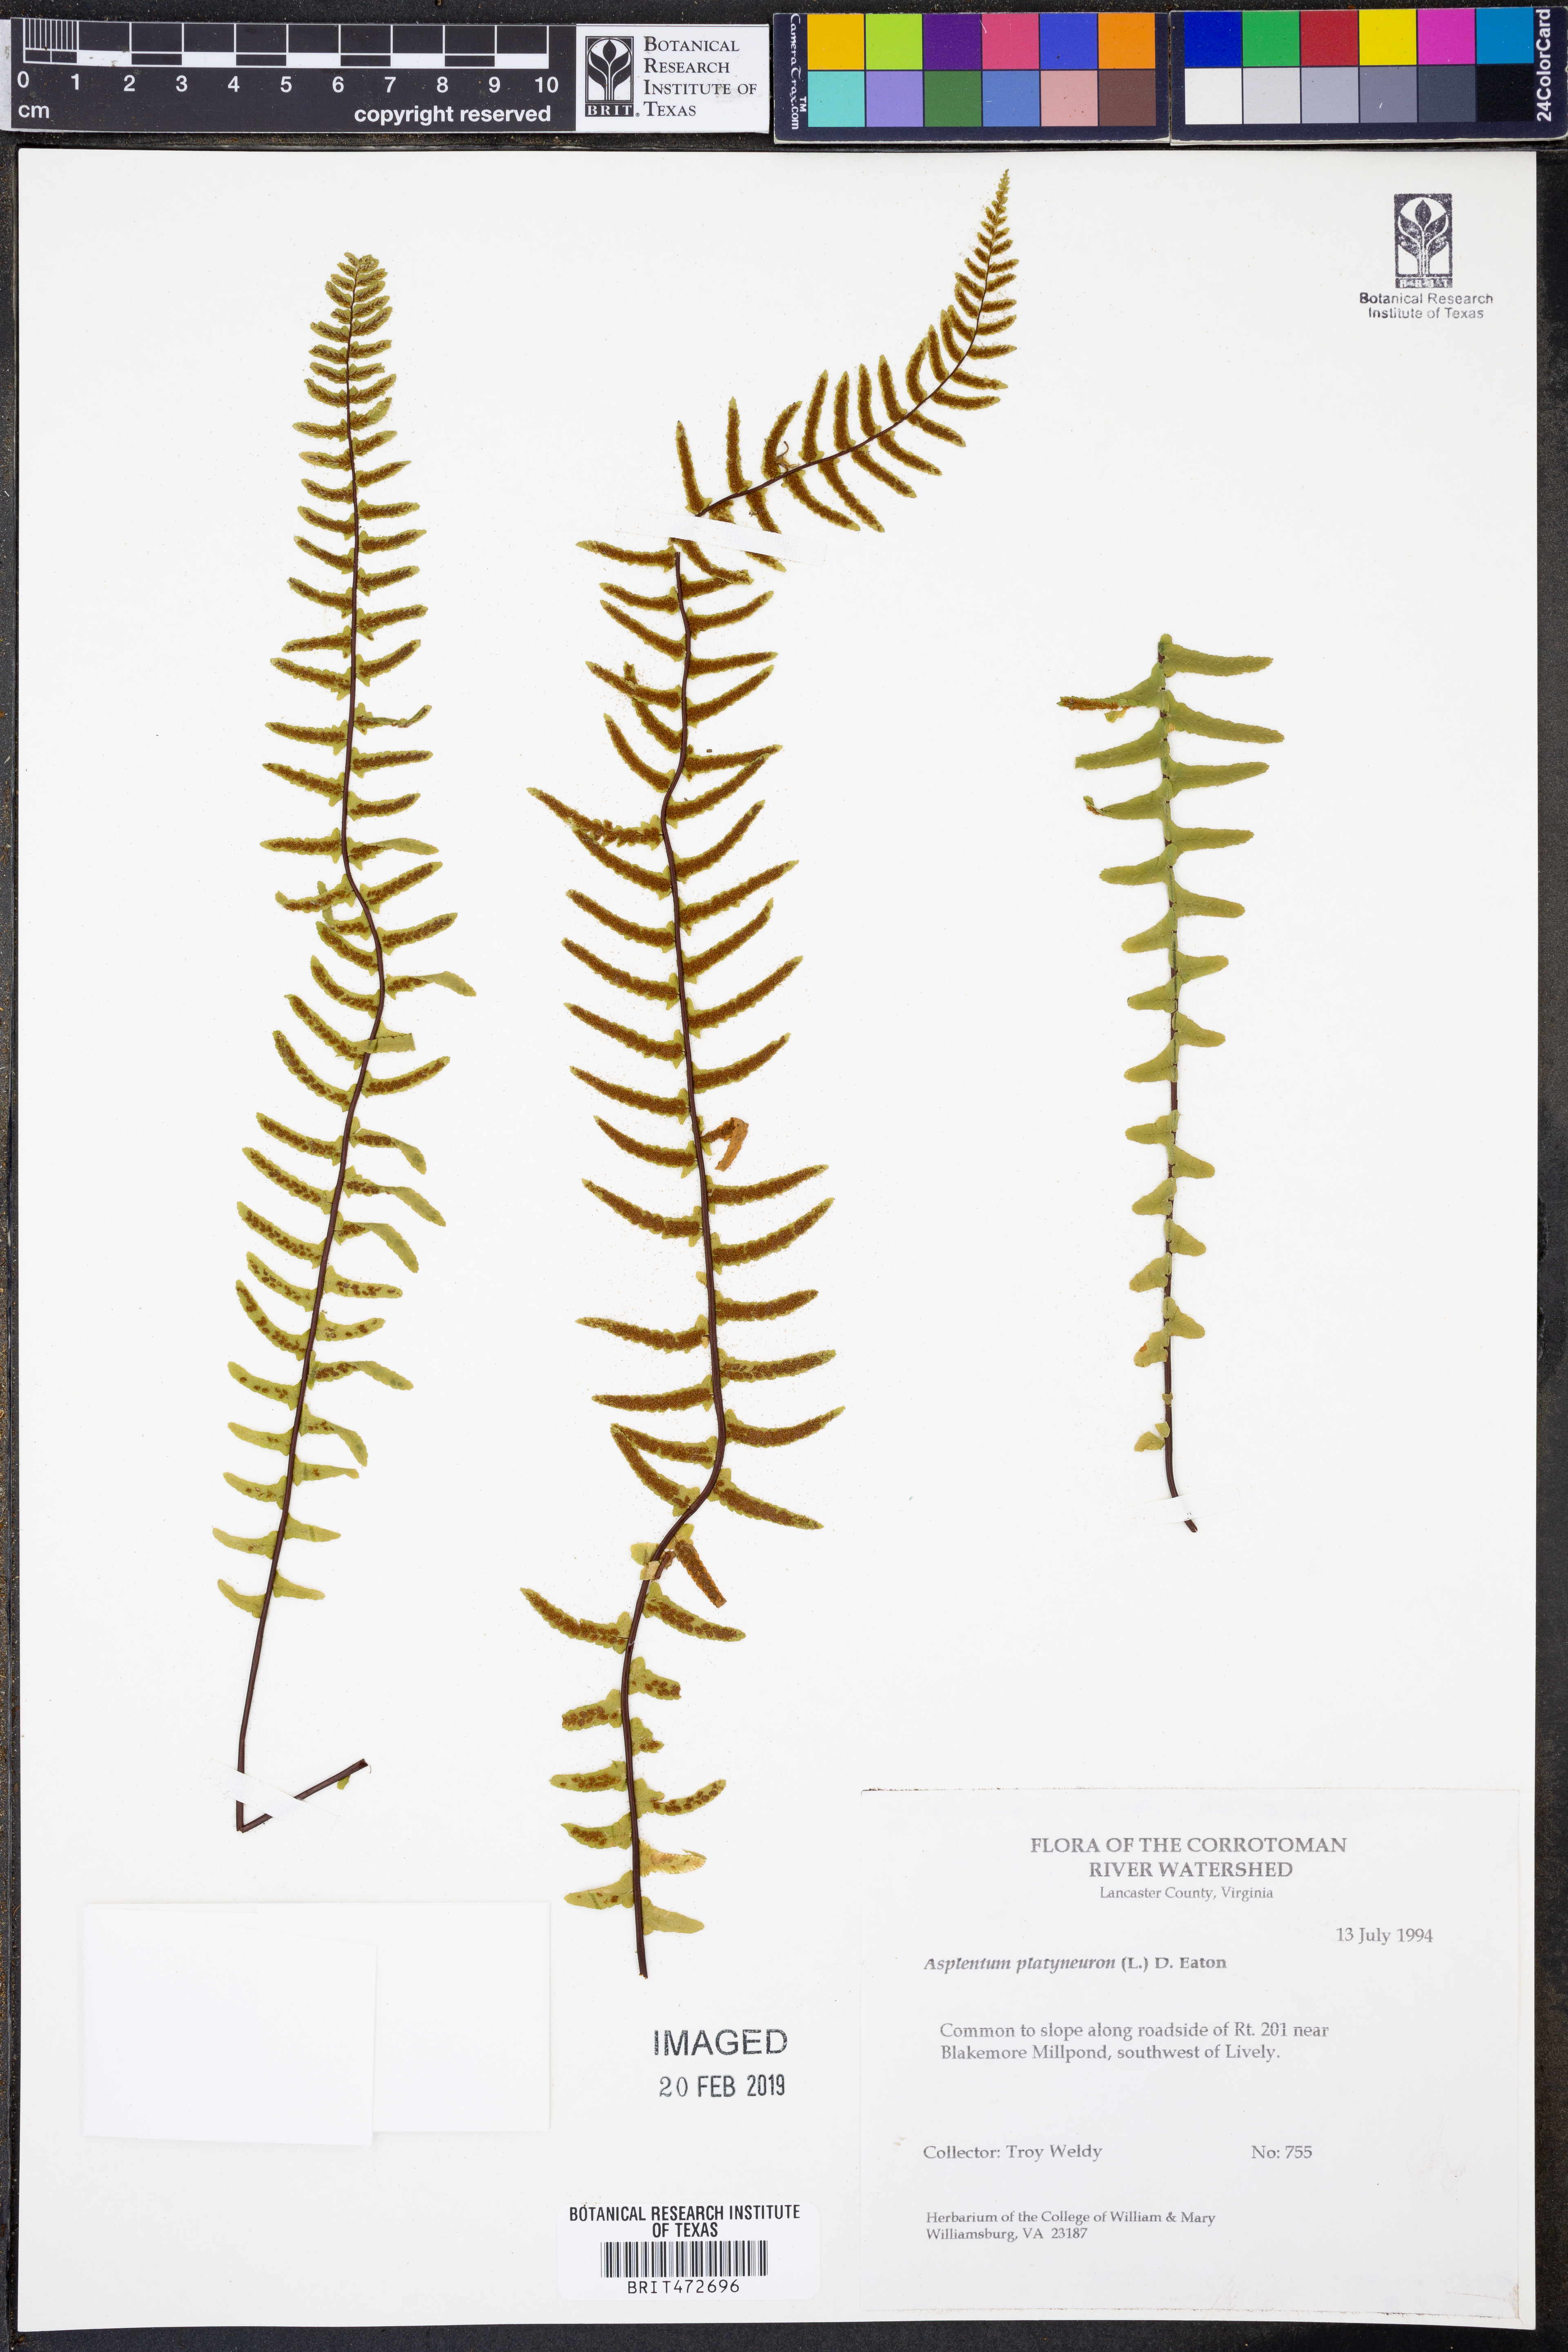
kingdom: Plantae
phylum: Tracheophyta
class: Polypodiopsida
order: Polypodiales
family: Aspleniaceae
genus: Asplenium
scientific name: Asplenium platyneuron
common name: Ebony spleenwort
